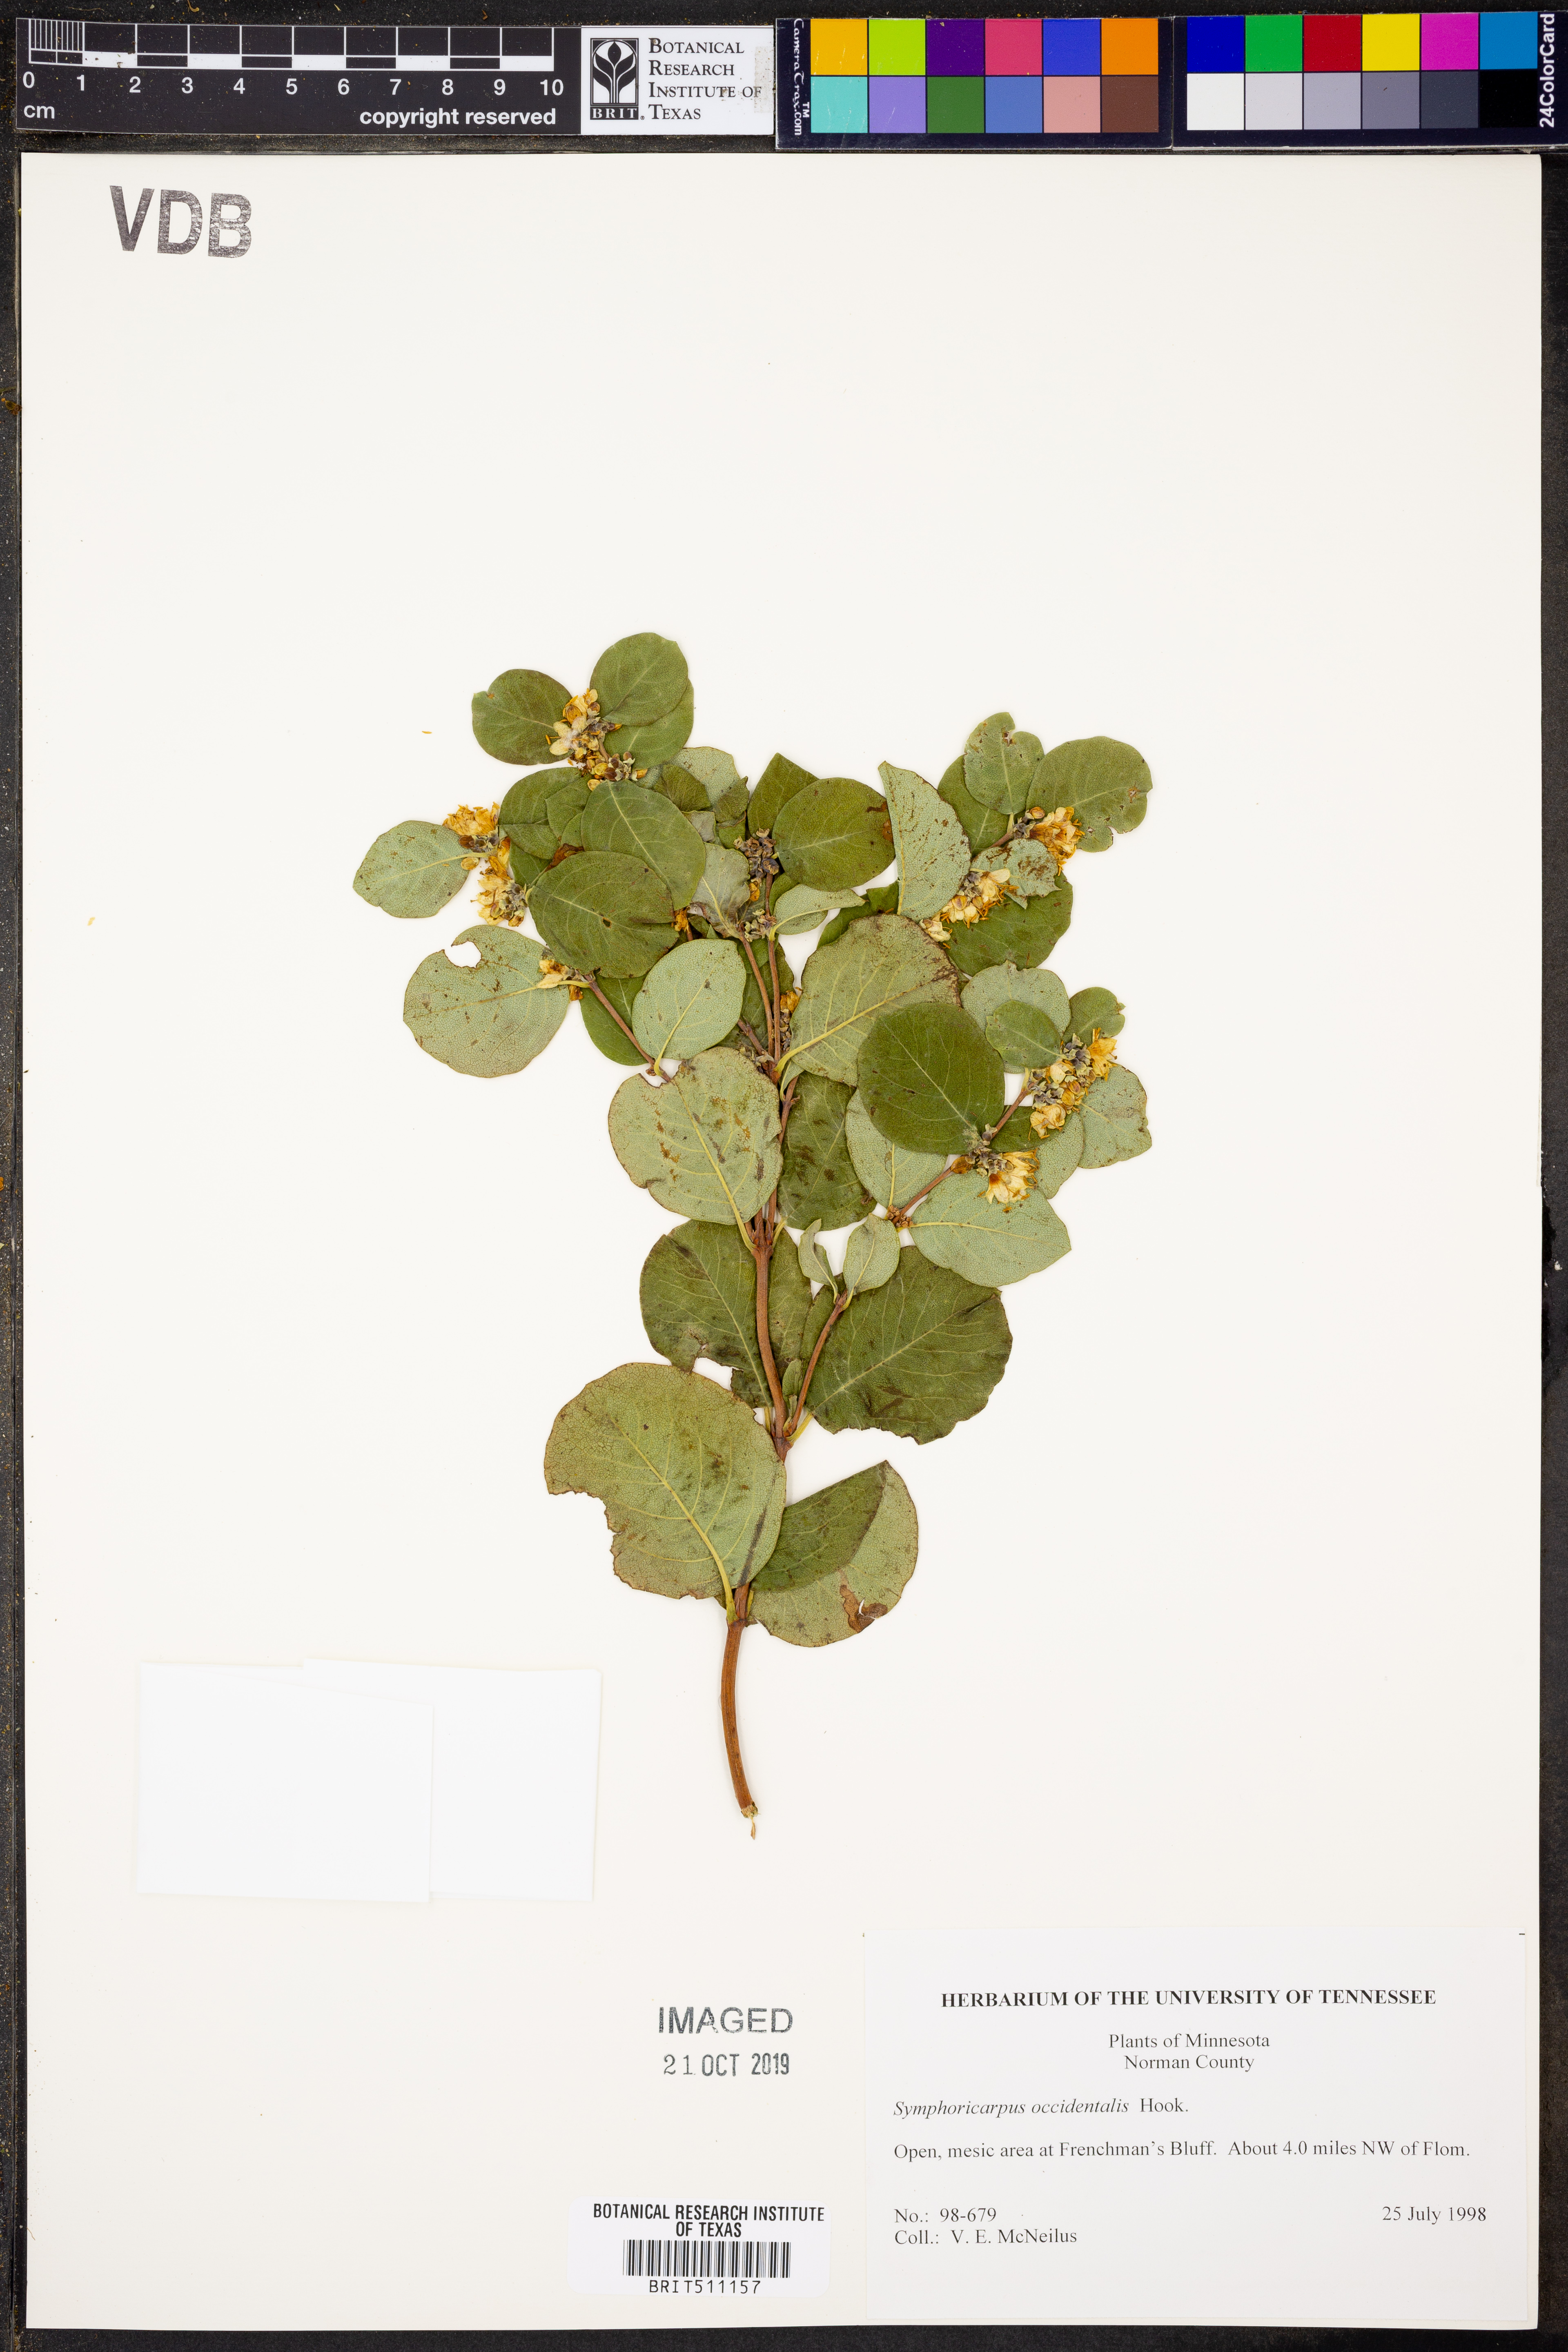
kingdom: Plantae
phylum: Tracheophyta
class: Magnoliopsida
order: Dipsacales
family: Caprifoliaceae
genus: Symphoricarpos
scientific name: Symphoricarpos occidentalis
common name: Wolfberry
